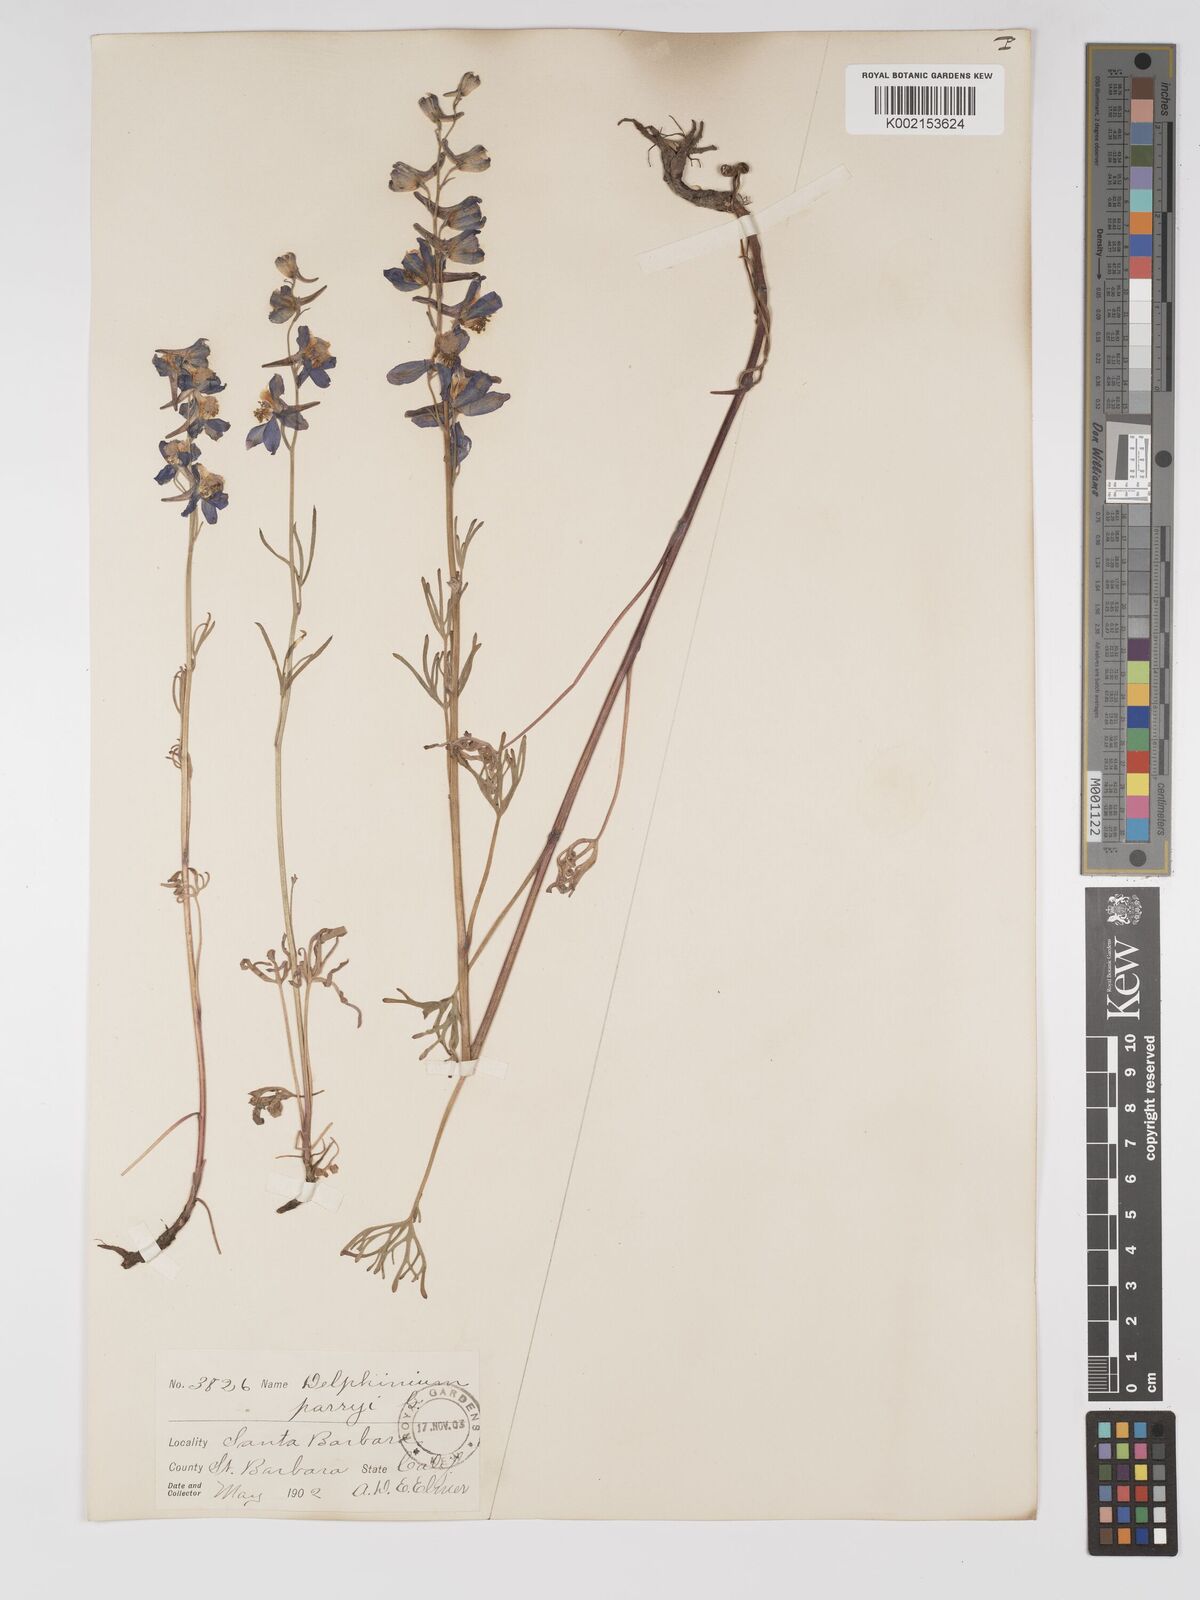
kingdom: Plantae
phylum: Tracheophyta
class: Magnoliopsida
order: Ranunculales
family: Ranunculaceae
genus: Delphinium
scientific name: Delphinium parryi
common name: Parry's larkspur
